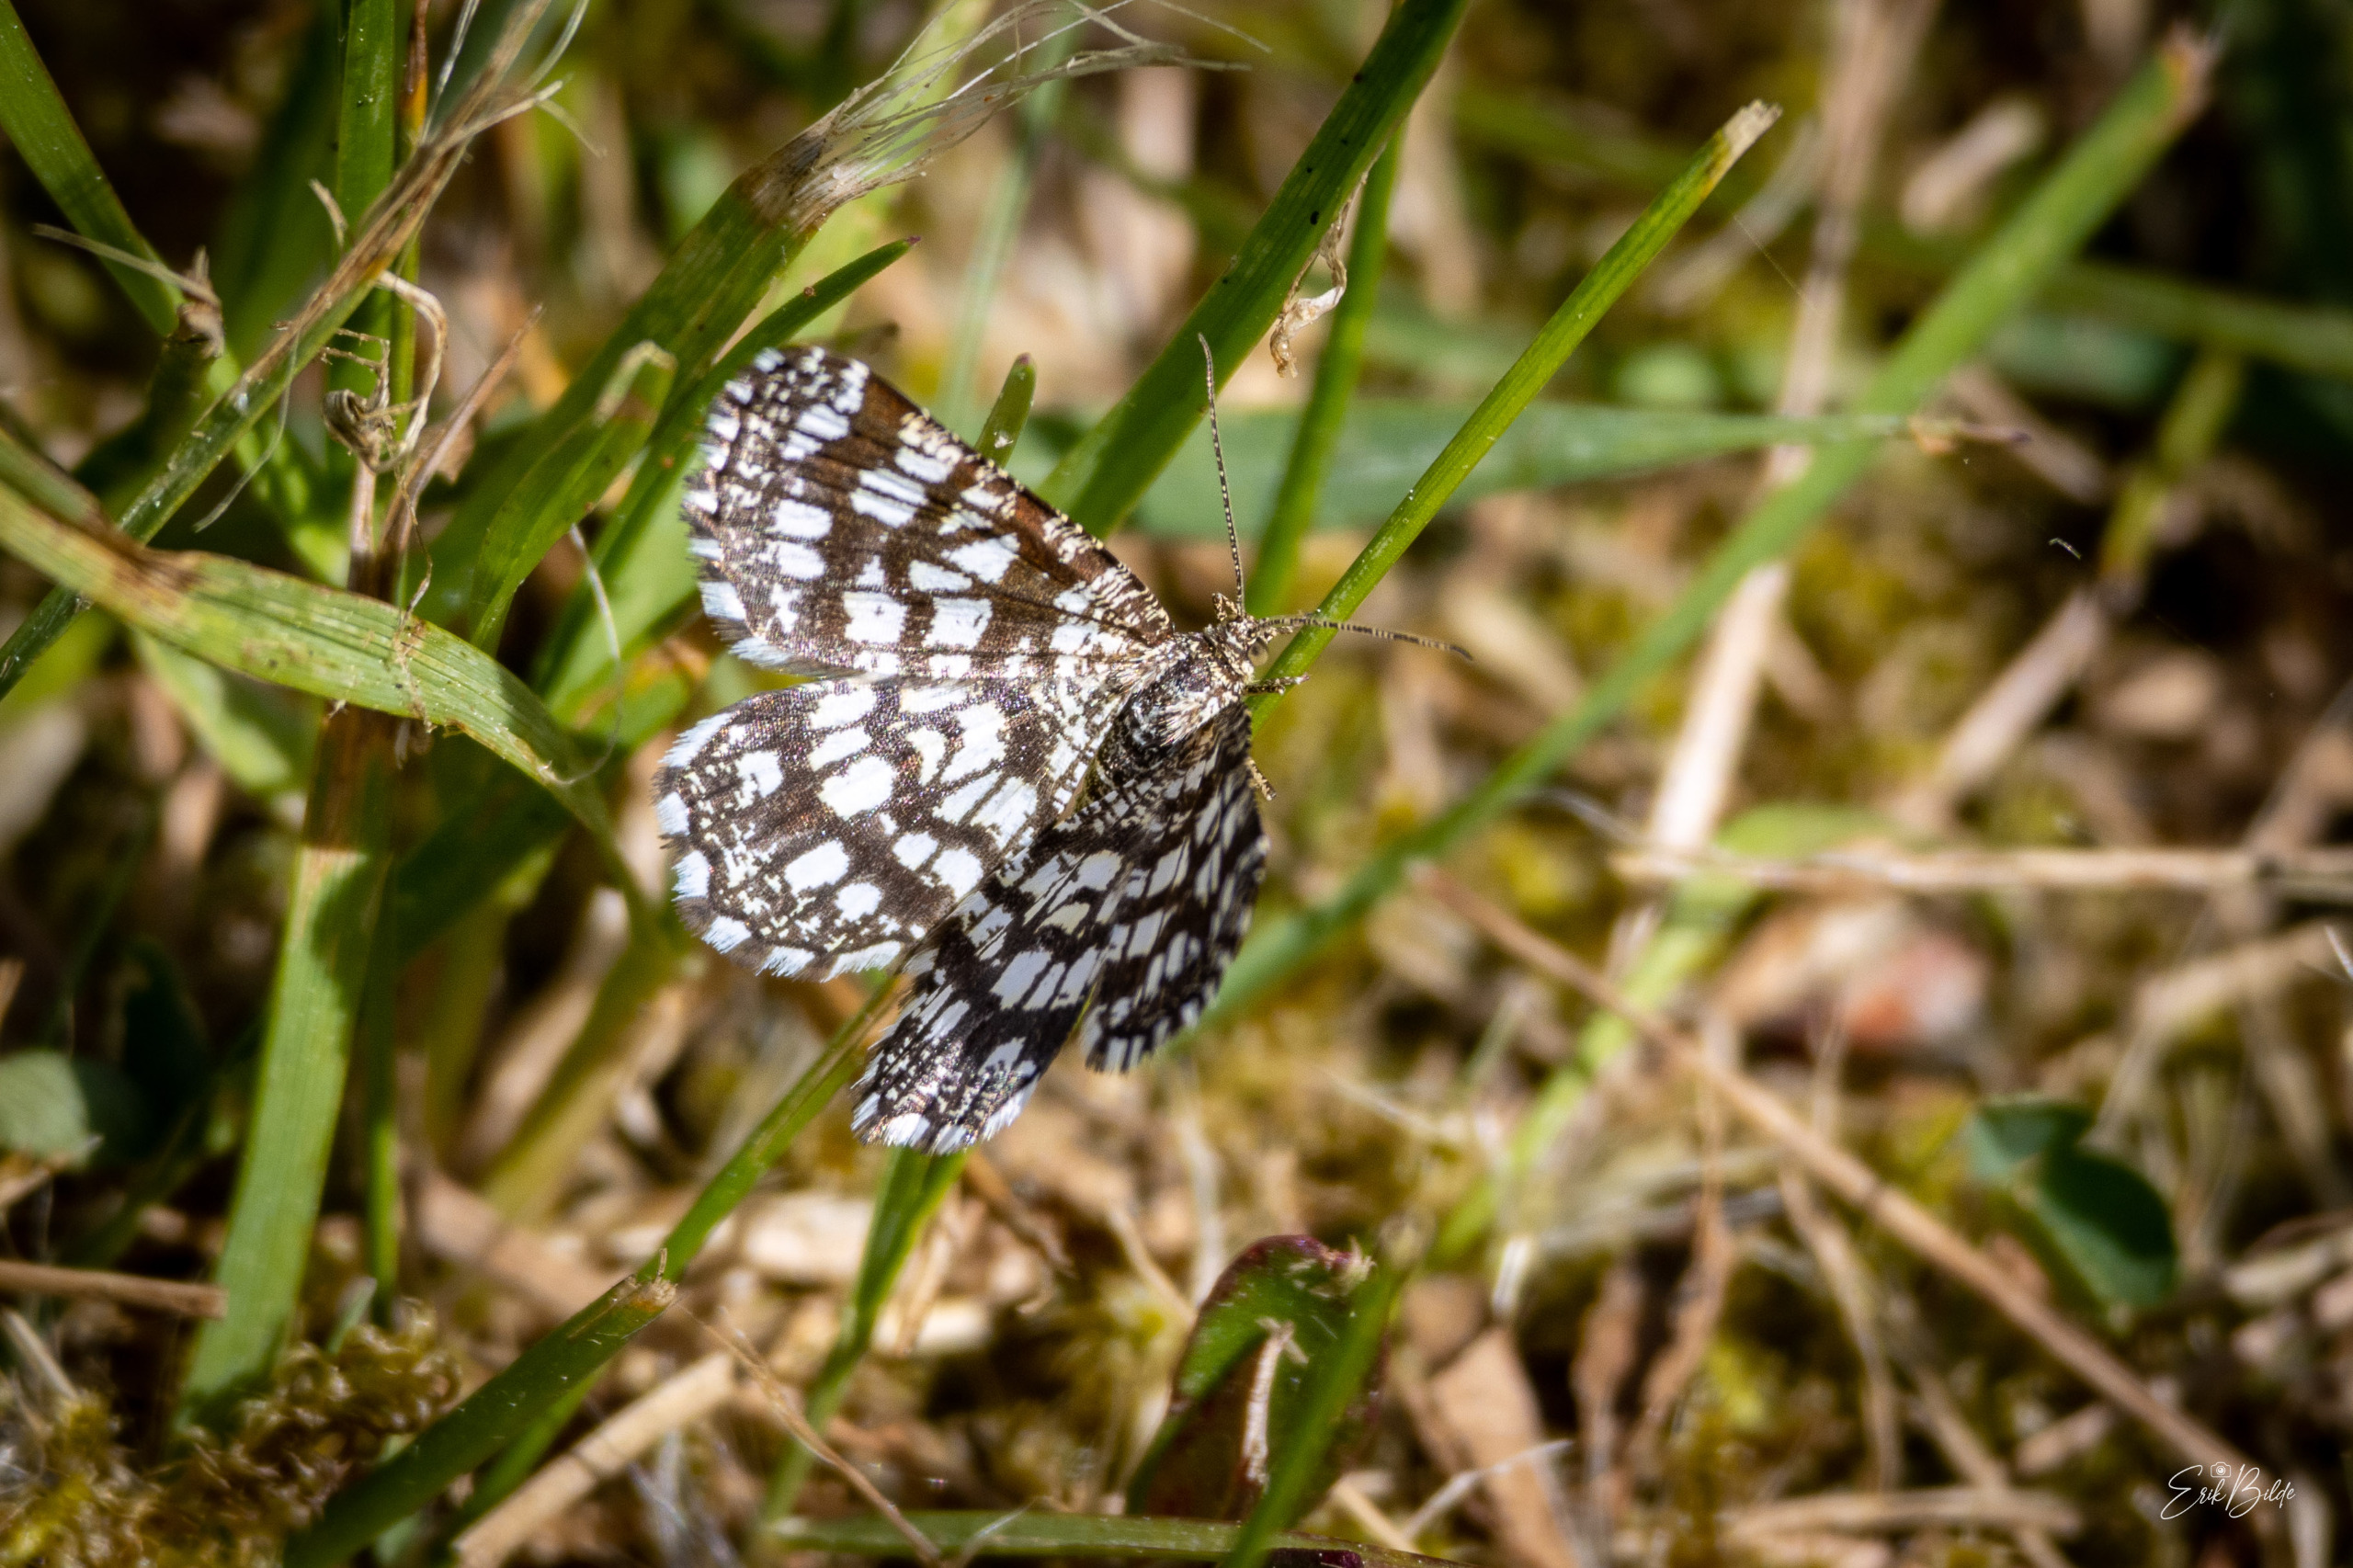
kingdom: Animalia
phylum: Arthropoda
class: Insecta
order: Lepidoptera
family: Geometridae
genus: Chiasmia
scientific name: Chiasmia clathrata
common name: Kløvermåler
